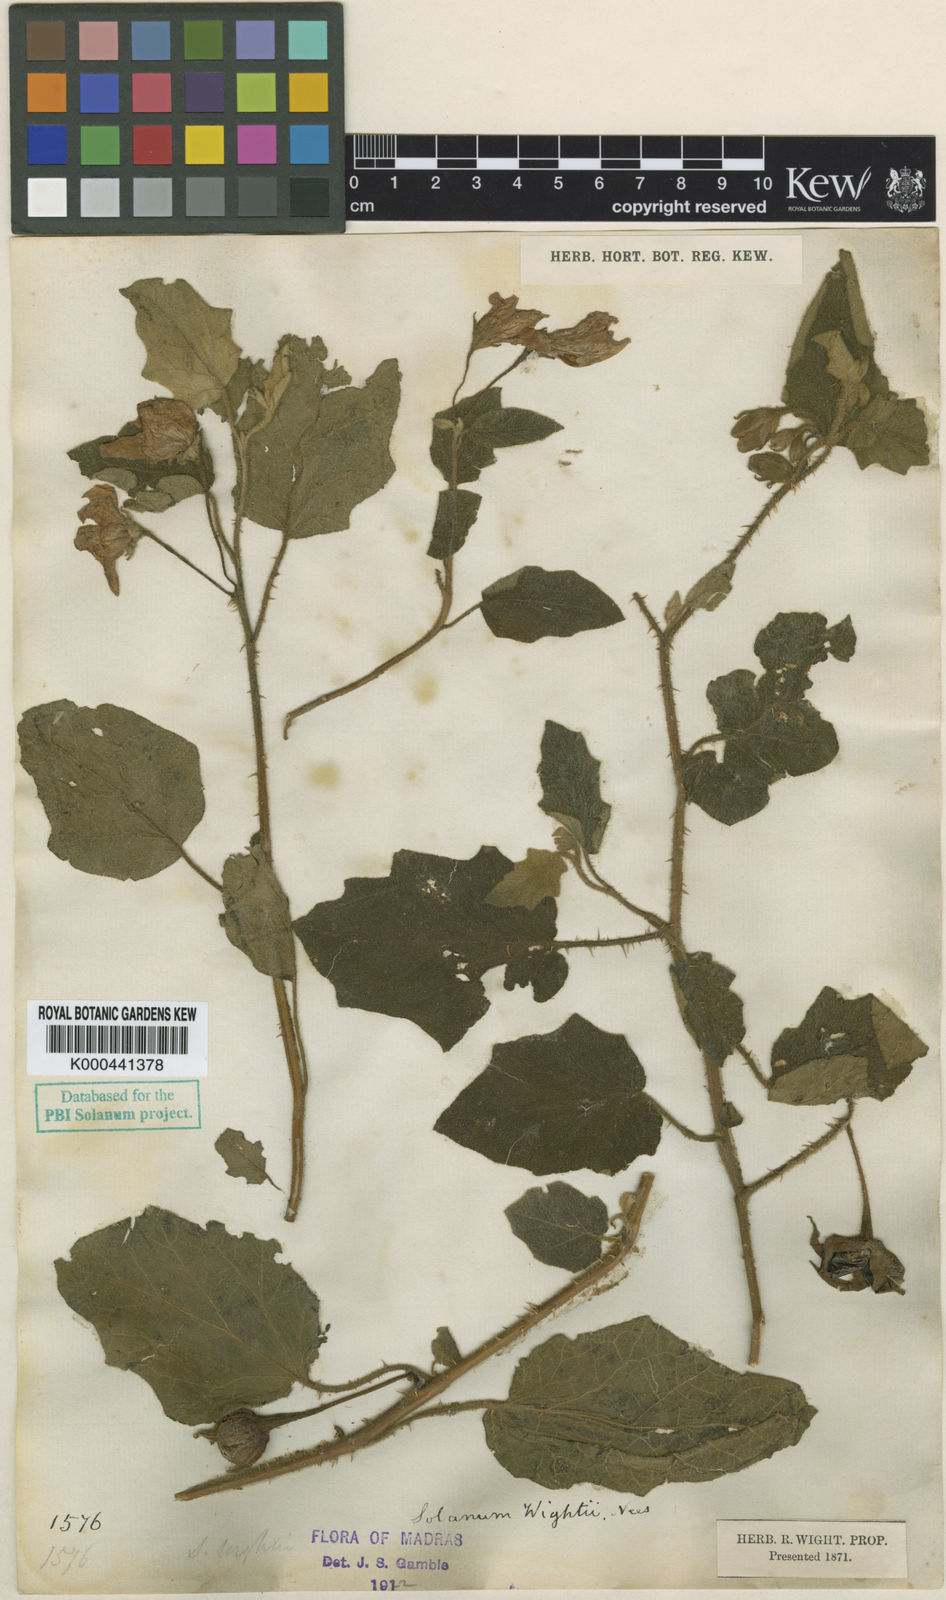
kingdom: Plantae
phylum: Tracheophyta
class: Magnoliopsida
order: Solanales
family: Solanaceae
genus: Solanum
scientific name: Solanum wightii
